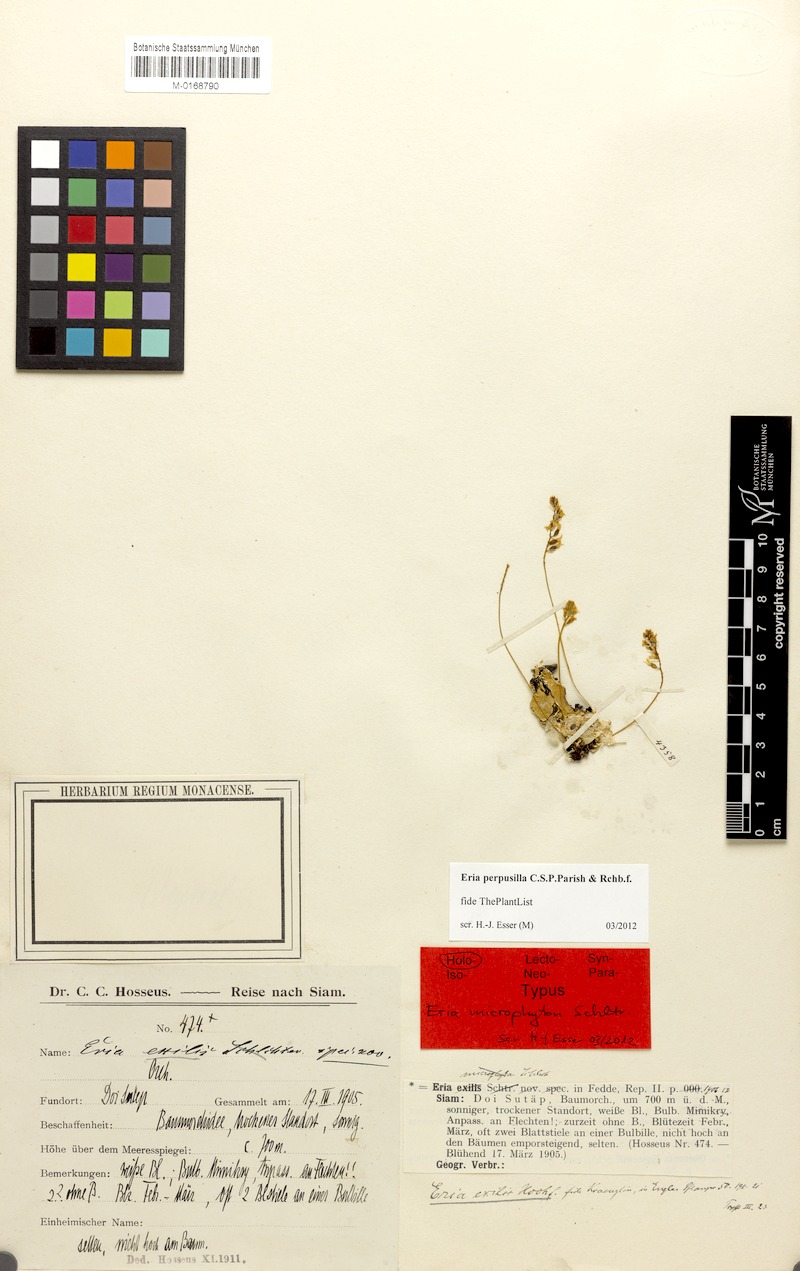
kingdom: Plantae
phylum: Tracheophyta
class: Liliopsida
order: Asparagales
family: Orchidaceae
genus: Thelasis
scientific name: Thelasis perpusilla
